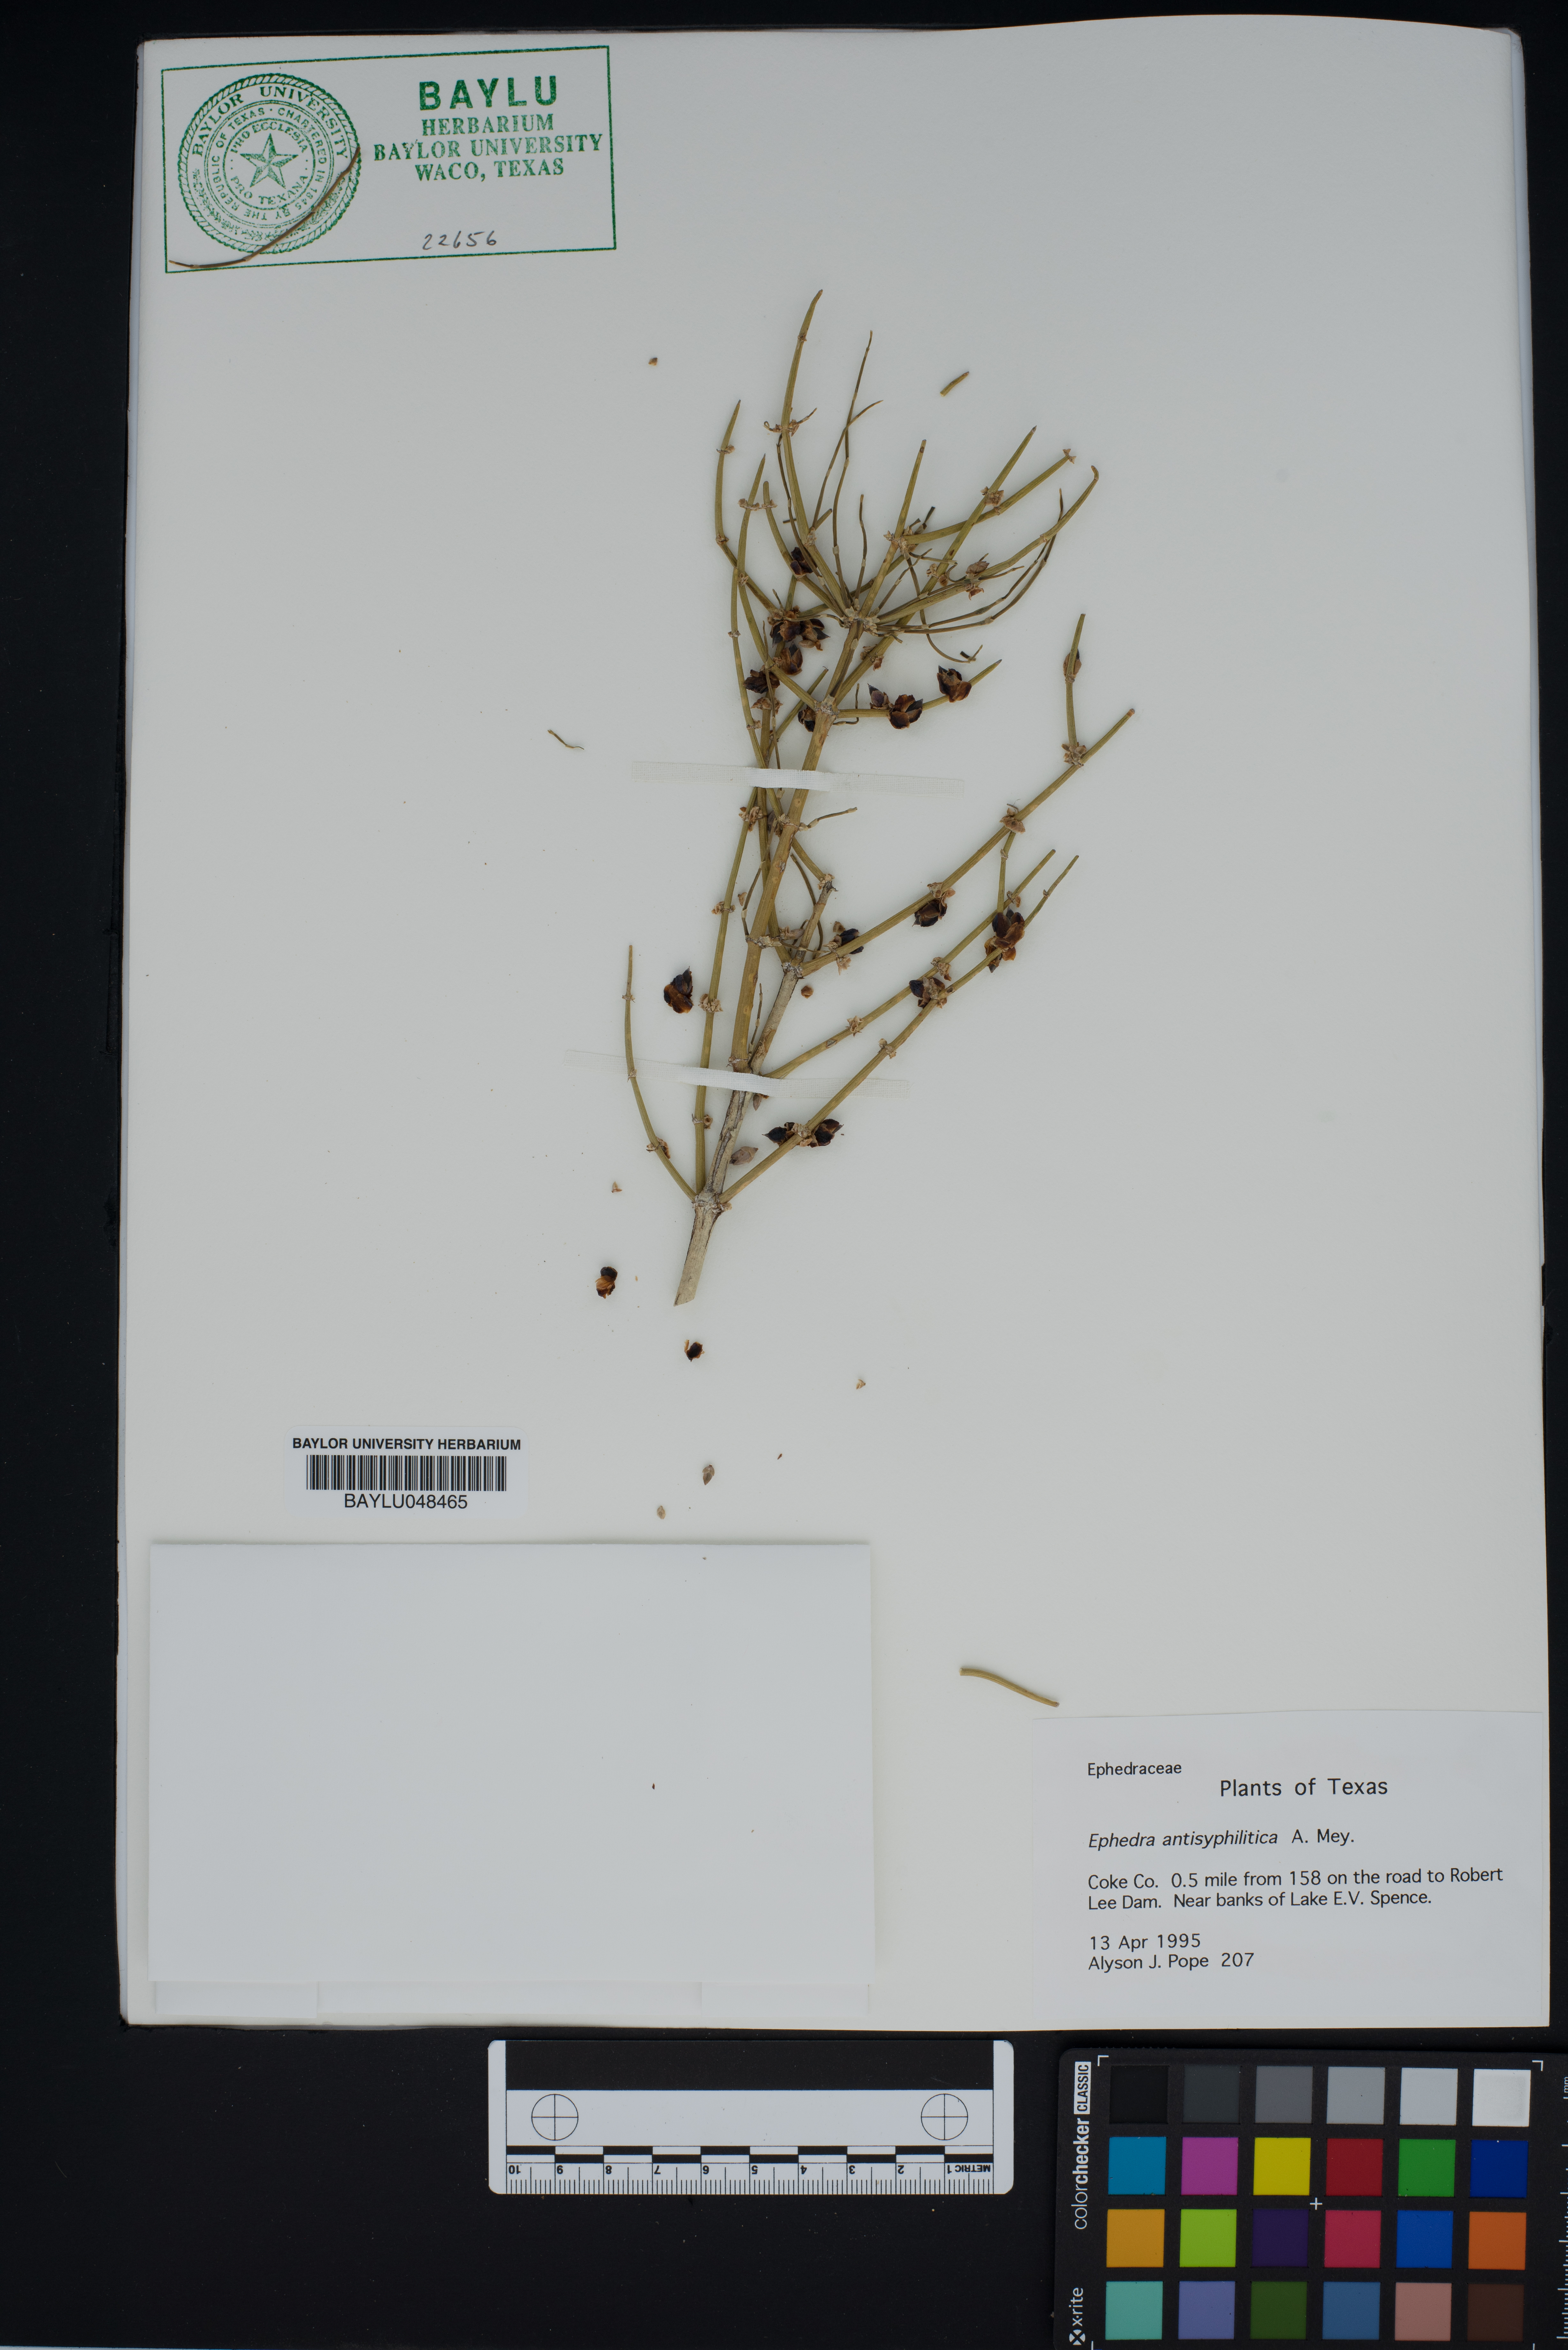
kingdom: Plantae
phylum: Tracheophyta
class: Gnetopsida
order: Ephedrales
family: Ephedraceae
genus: Ephedra
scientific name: Ephedra antisyphilitica
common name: Clipweed
